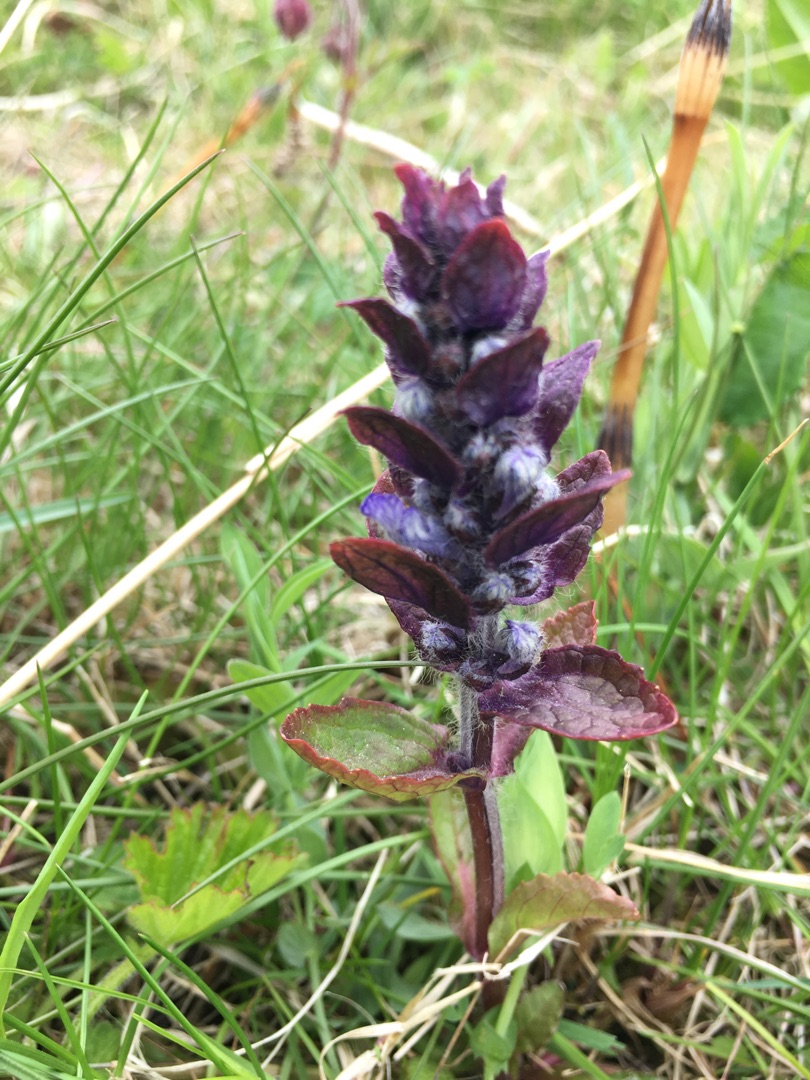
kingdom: Plantae
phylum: Tracheophyta
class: Magnoliopsida
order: Lamiales
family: Lamiaceae
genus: Ajuga
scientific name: Ajuga reptans
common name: Krybende læbeløs
